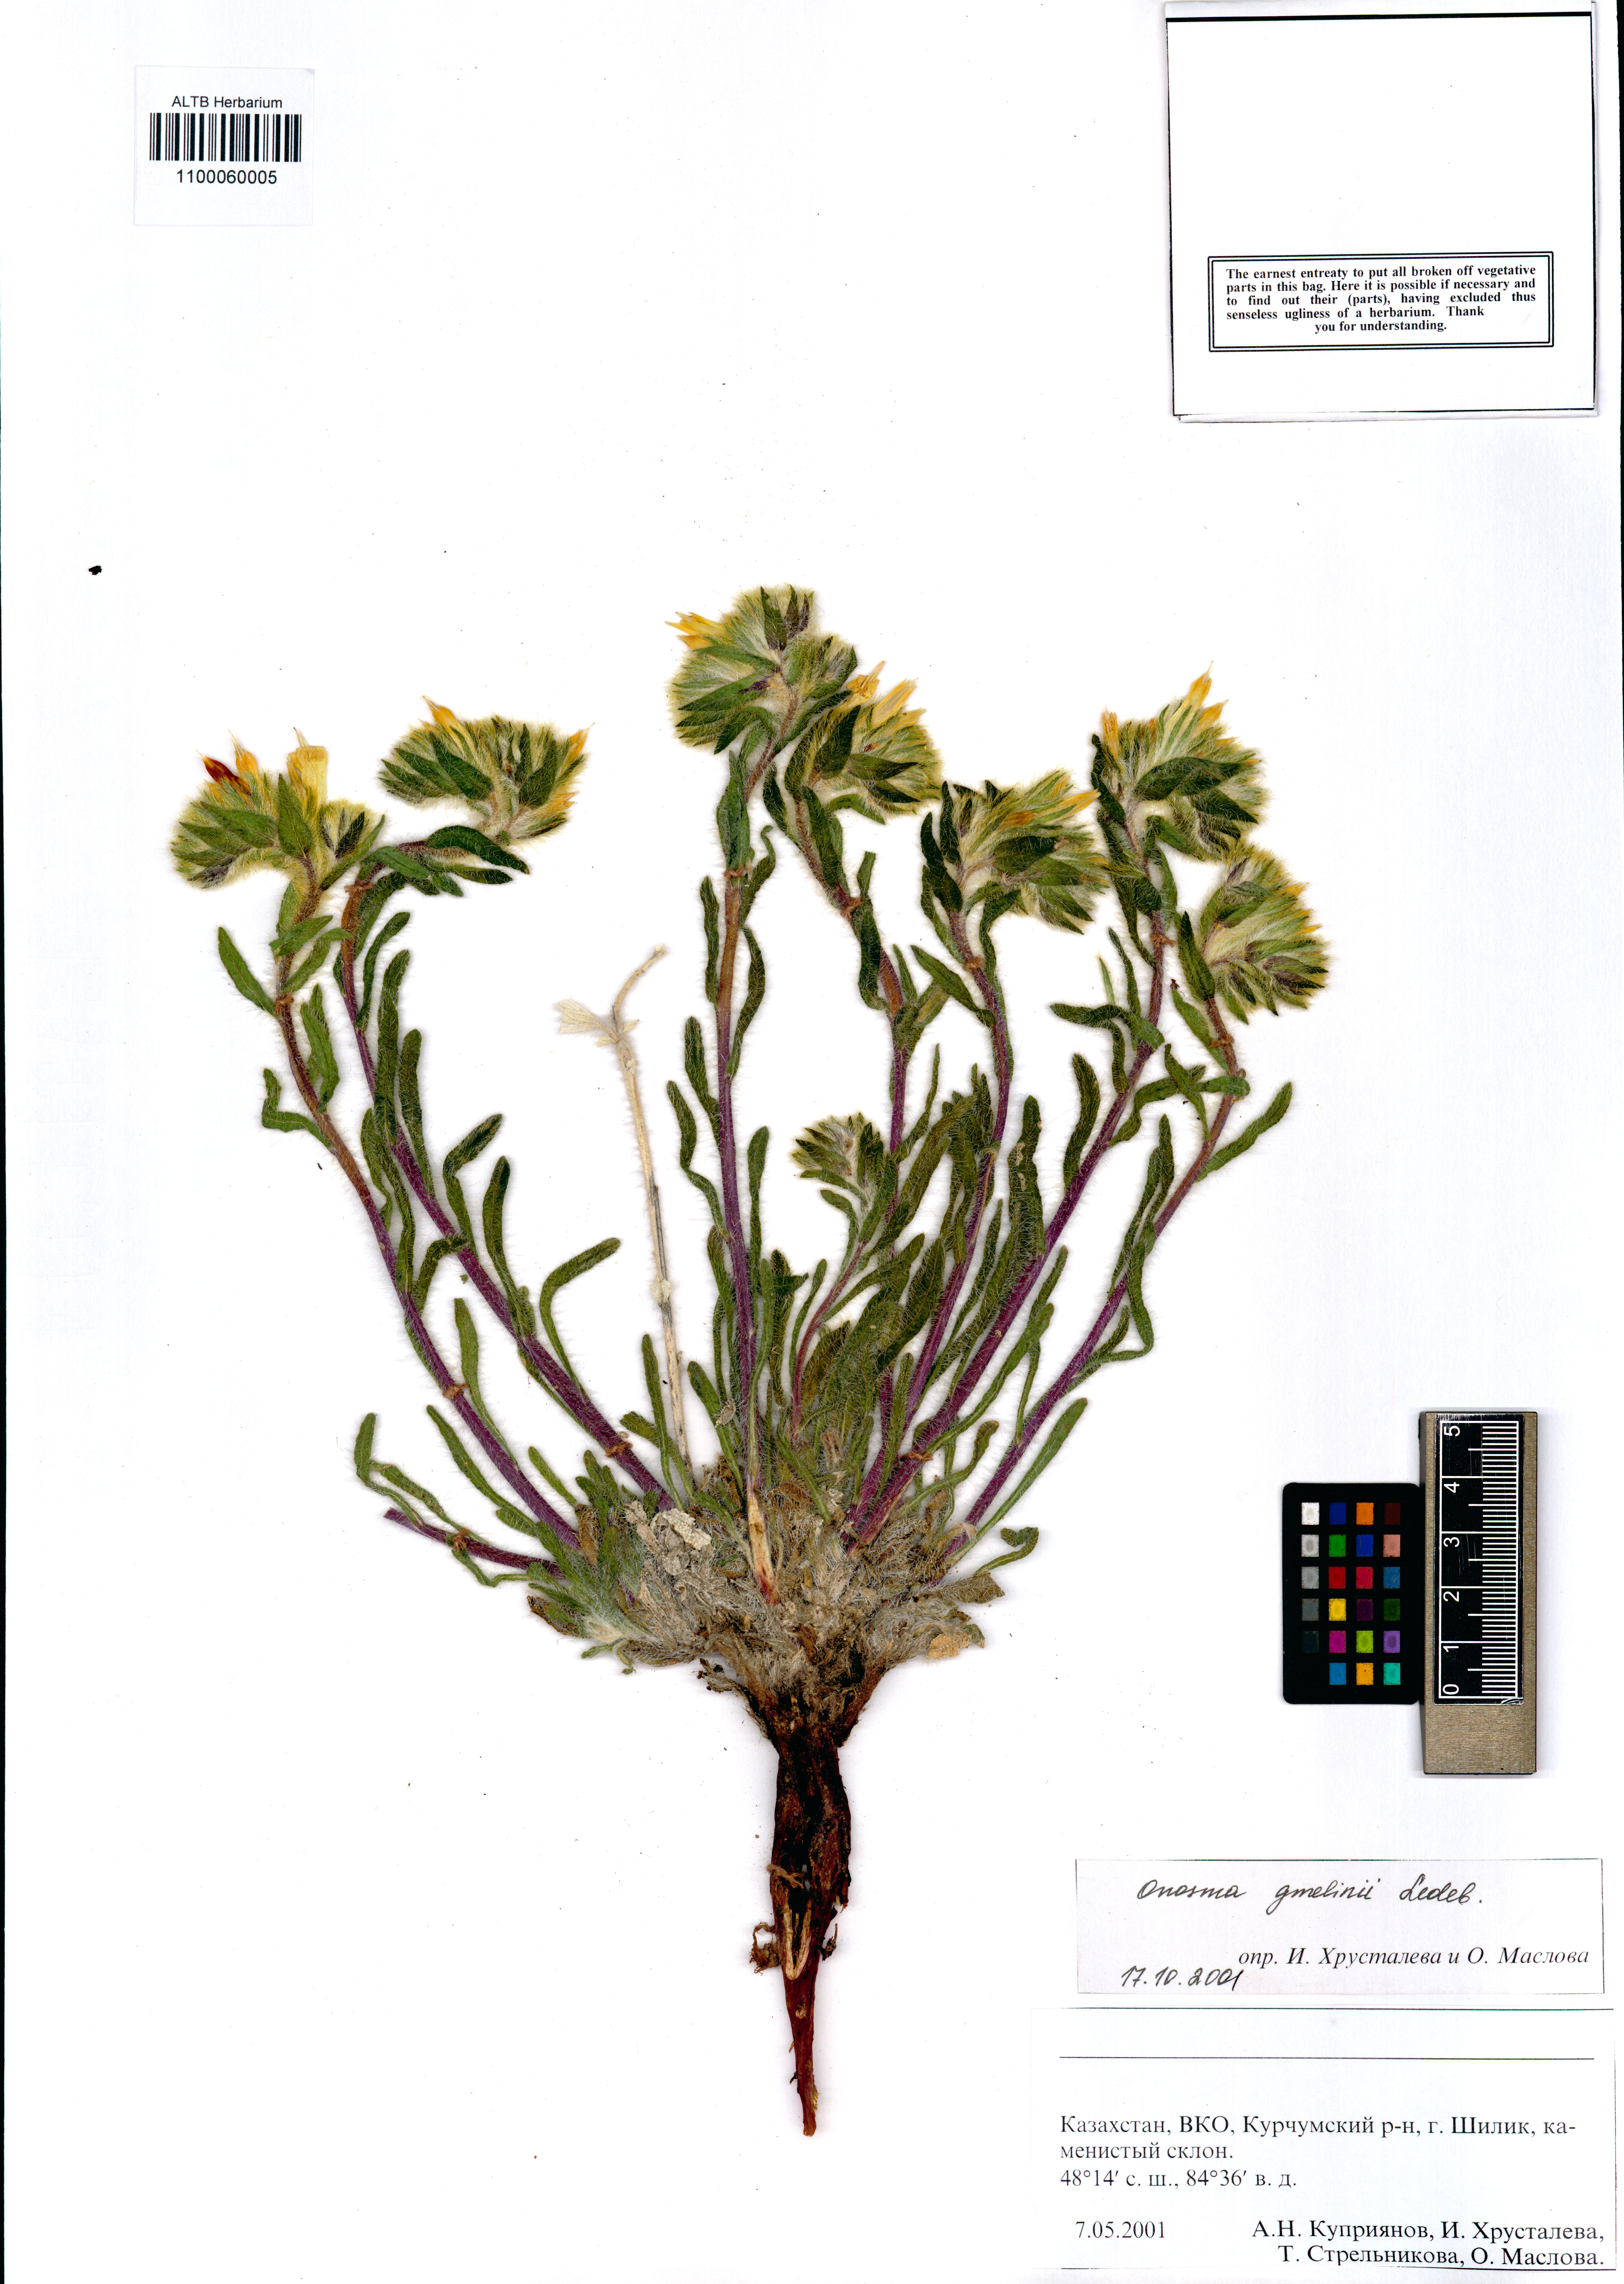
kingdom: Plantae
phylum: Tracheophyta
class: Magnoliopsida
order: Boraginales
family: Boraginaceae
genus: Onosma
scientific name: Onosma gmelinii
